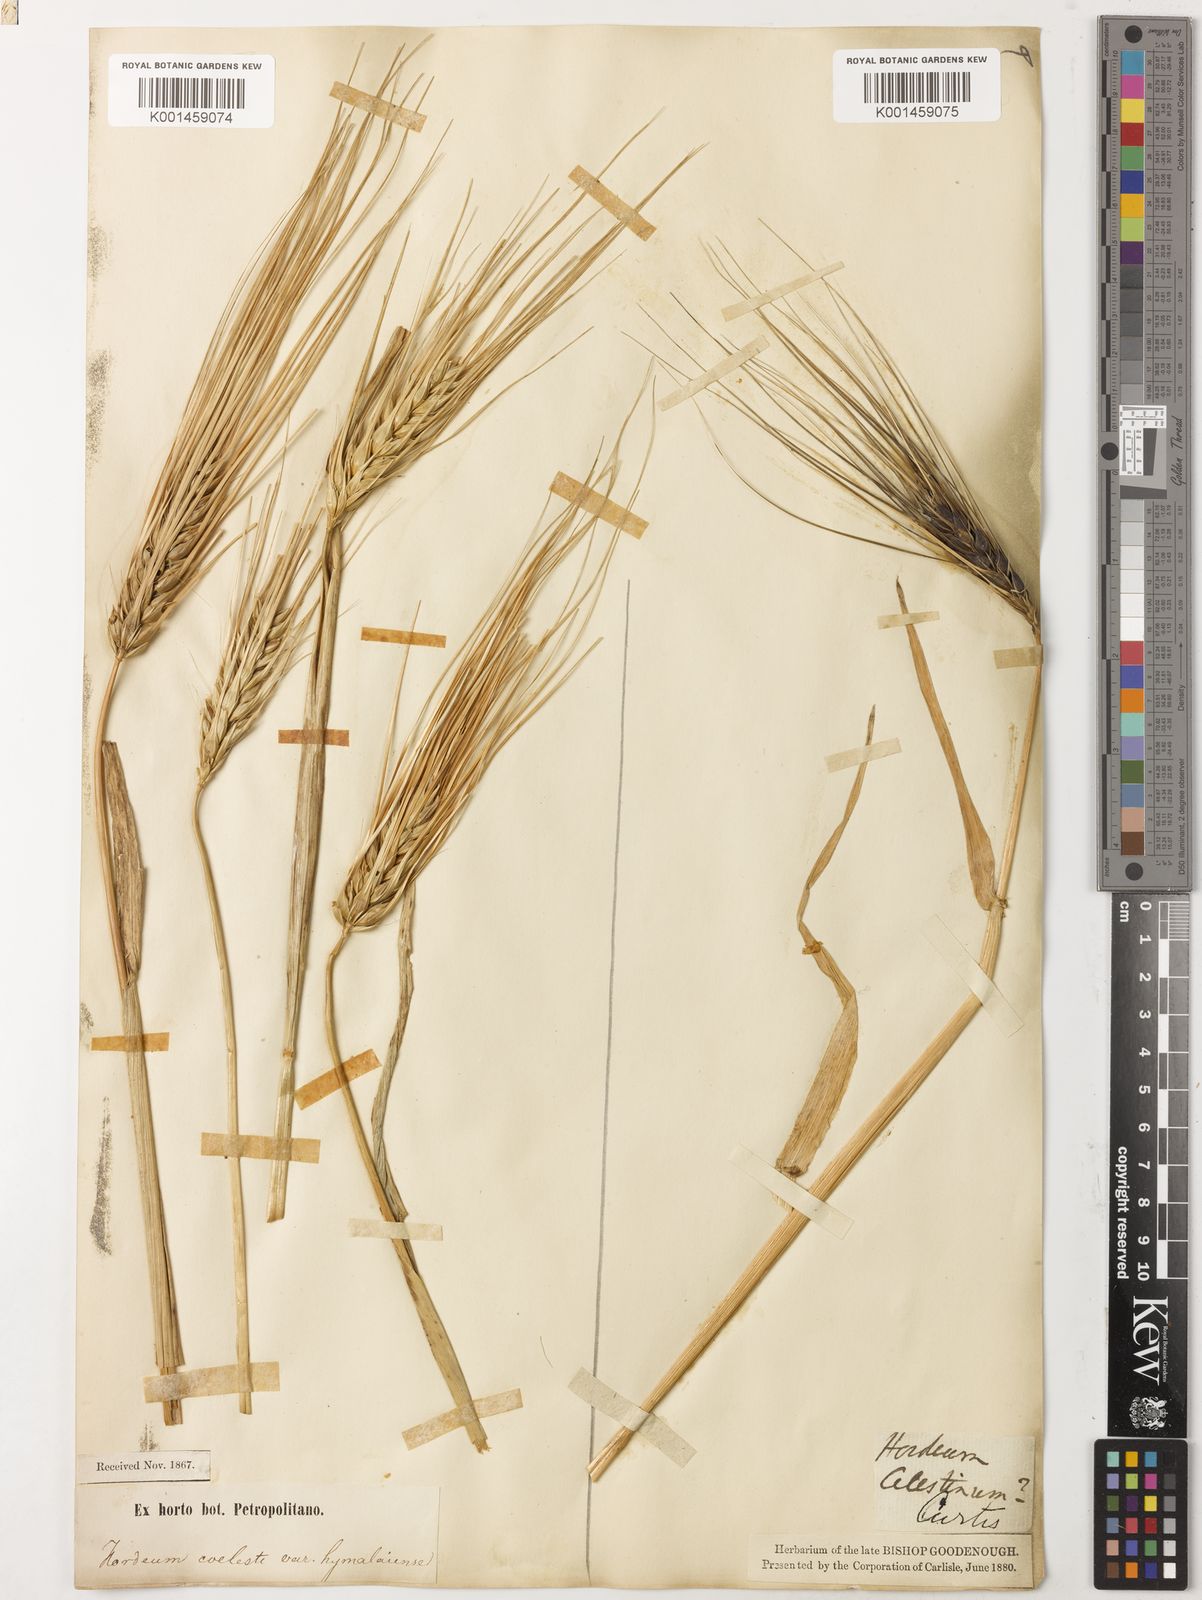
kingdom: Plantae
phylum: Tracheophyta
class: Liliopsida
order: Poales
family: Poaceae
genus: Hordeum
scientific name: Hordeum vulgare
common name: Common barley
